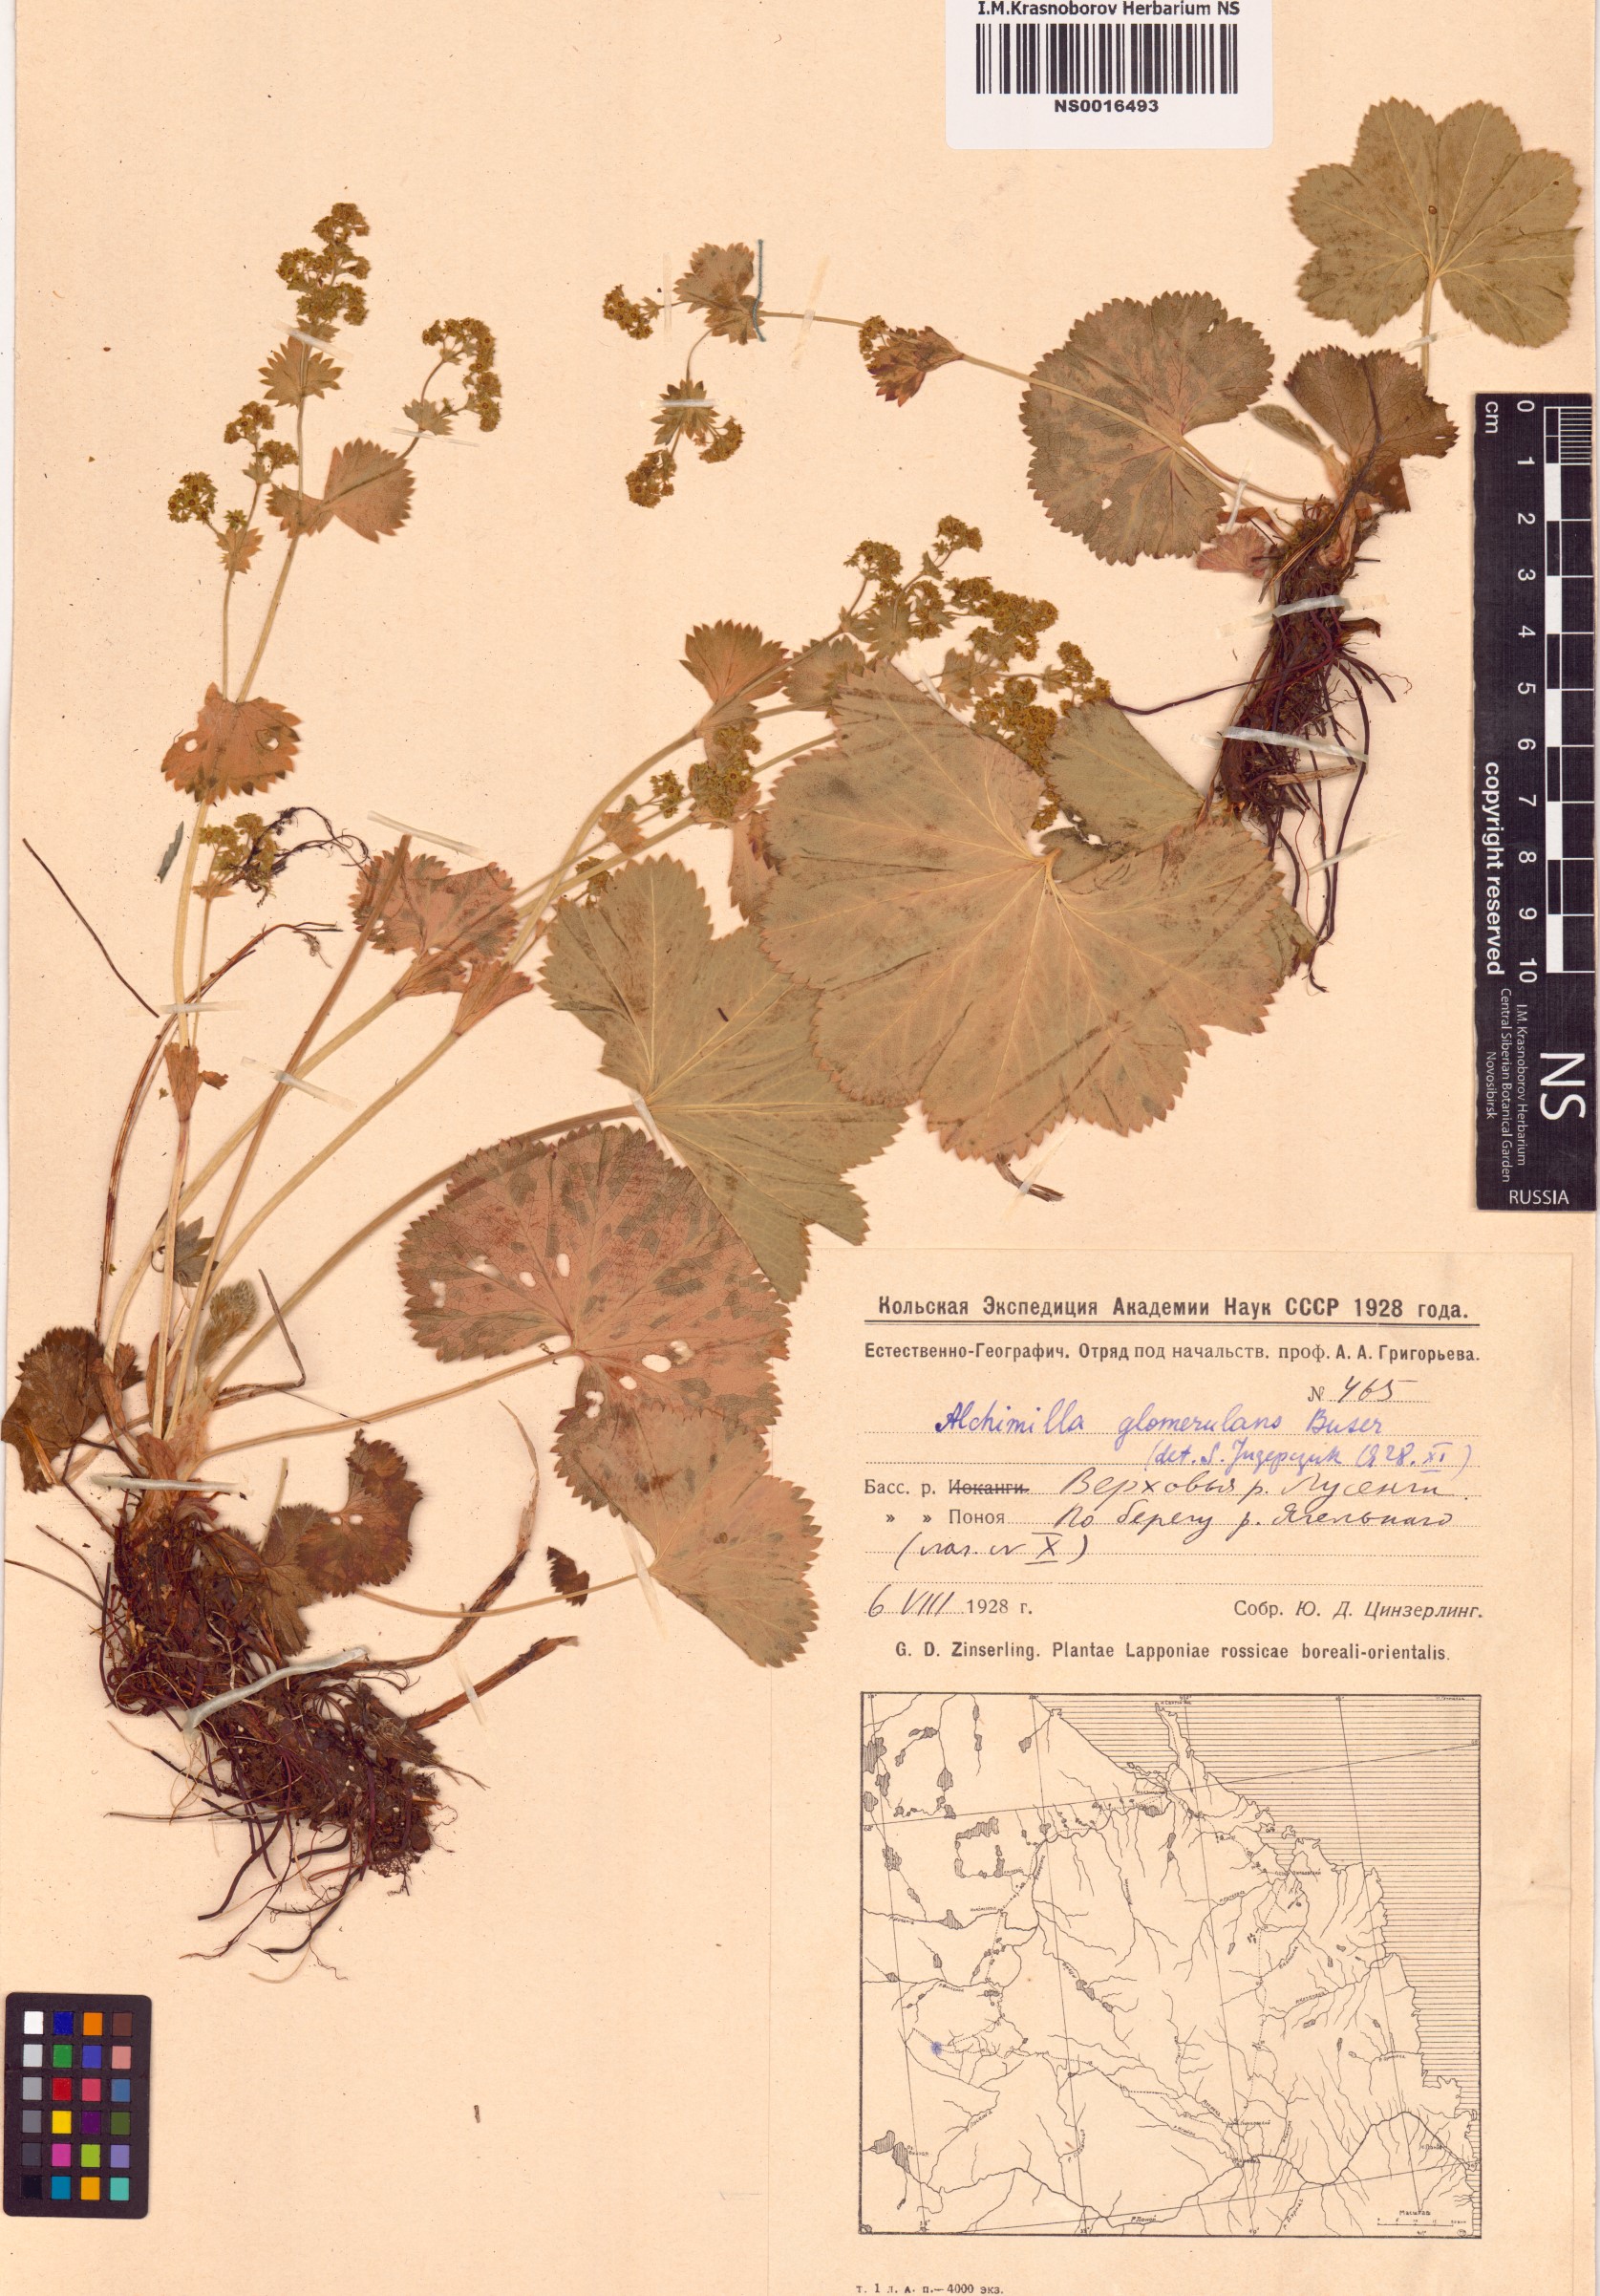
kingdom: Plantae
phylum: Tracheophyta
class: Magnoliopsida
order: Rosales
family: Rosaceae
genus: Alchemilla
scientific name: Alchemilla glomerulans
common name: Clustered lady's mantle
